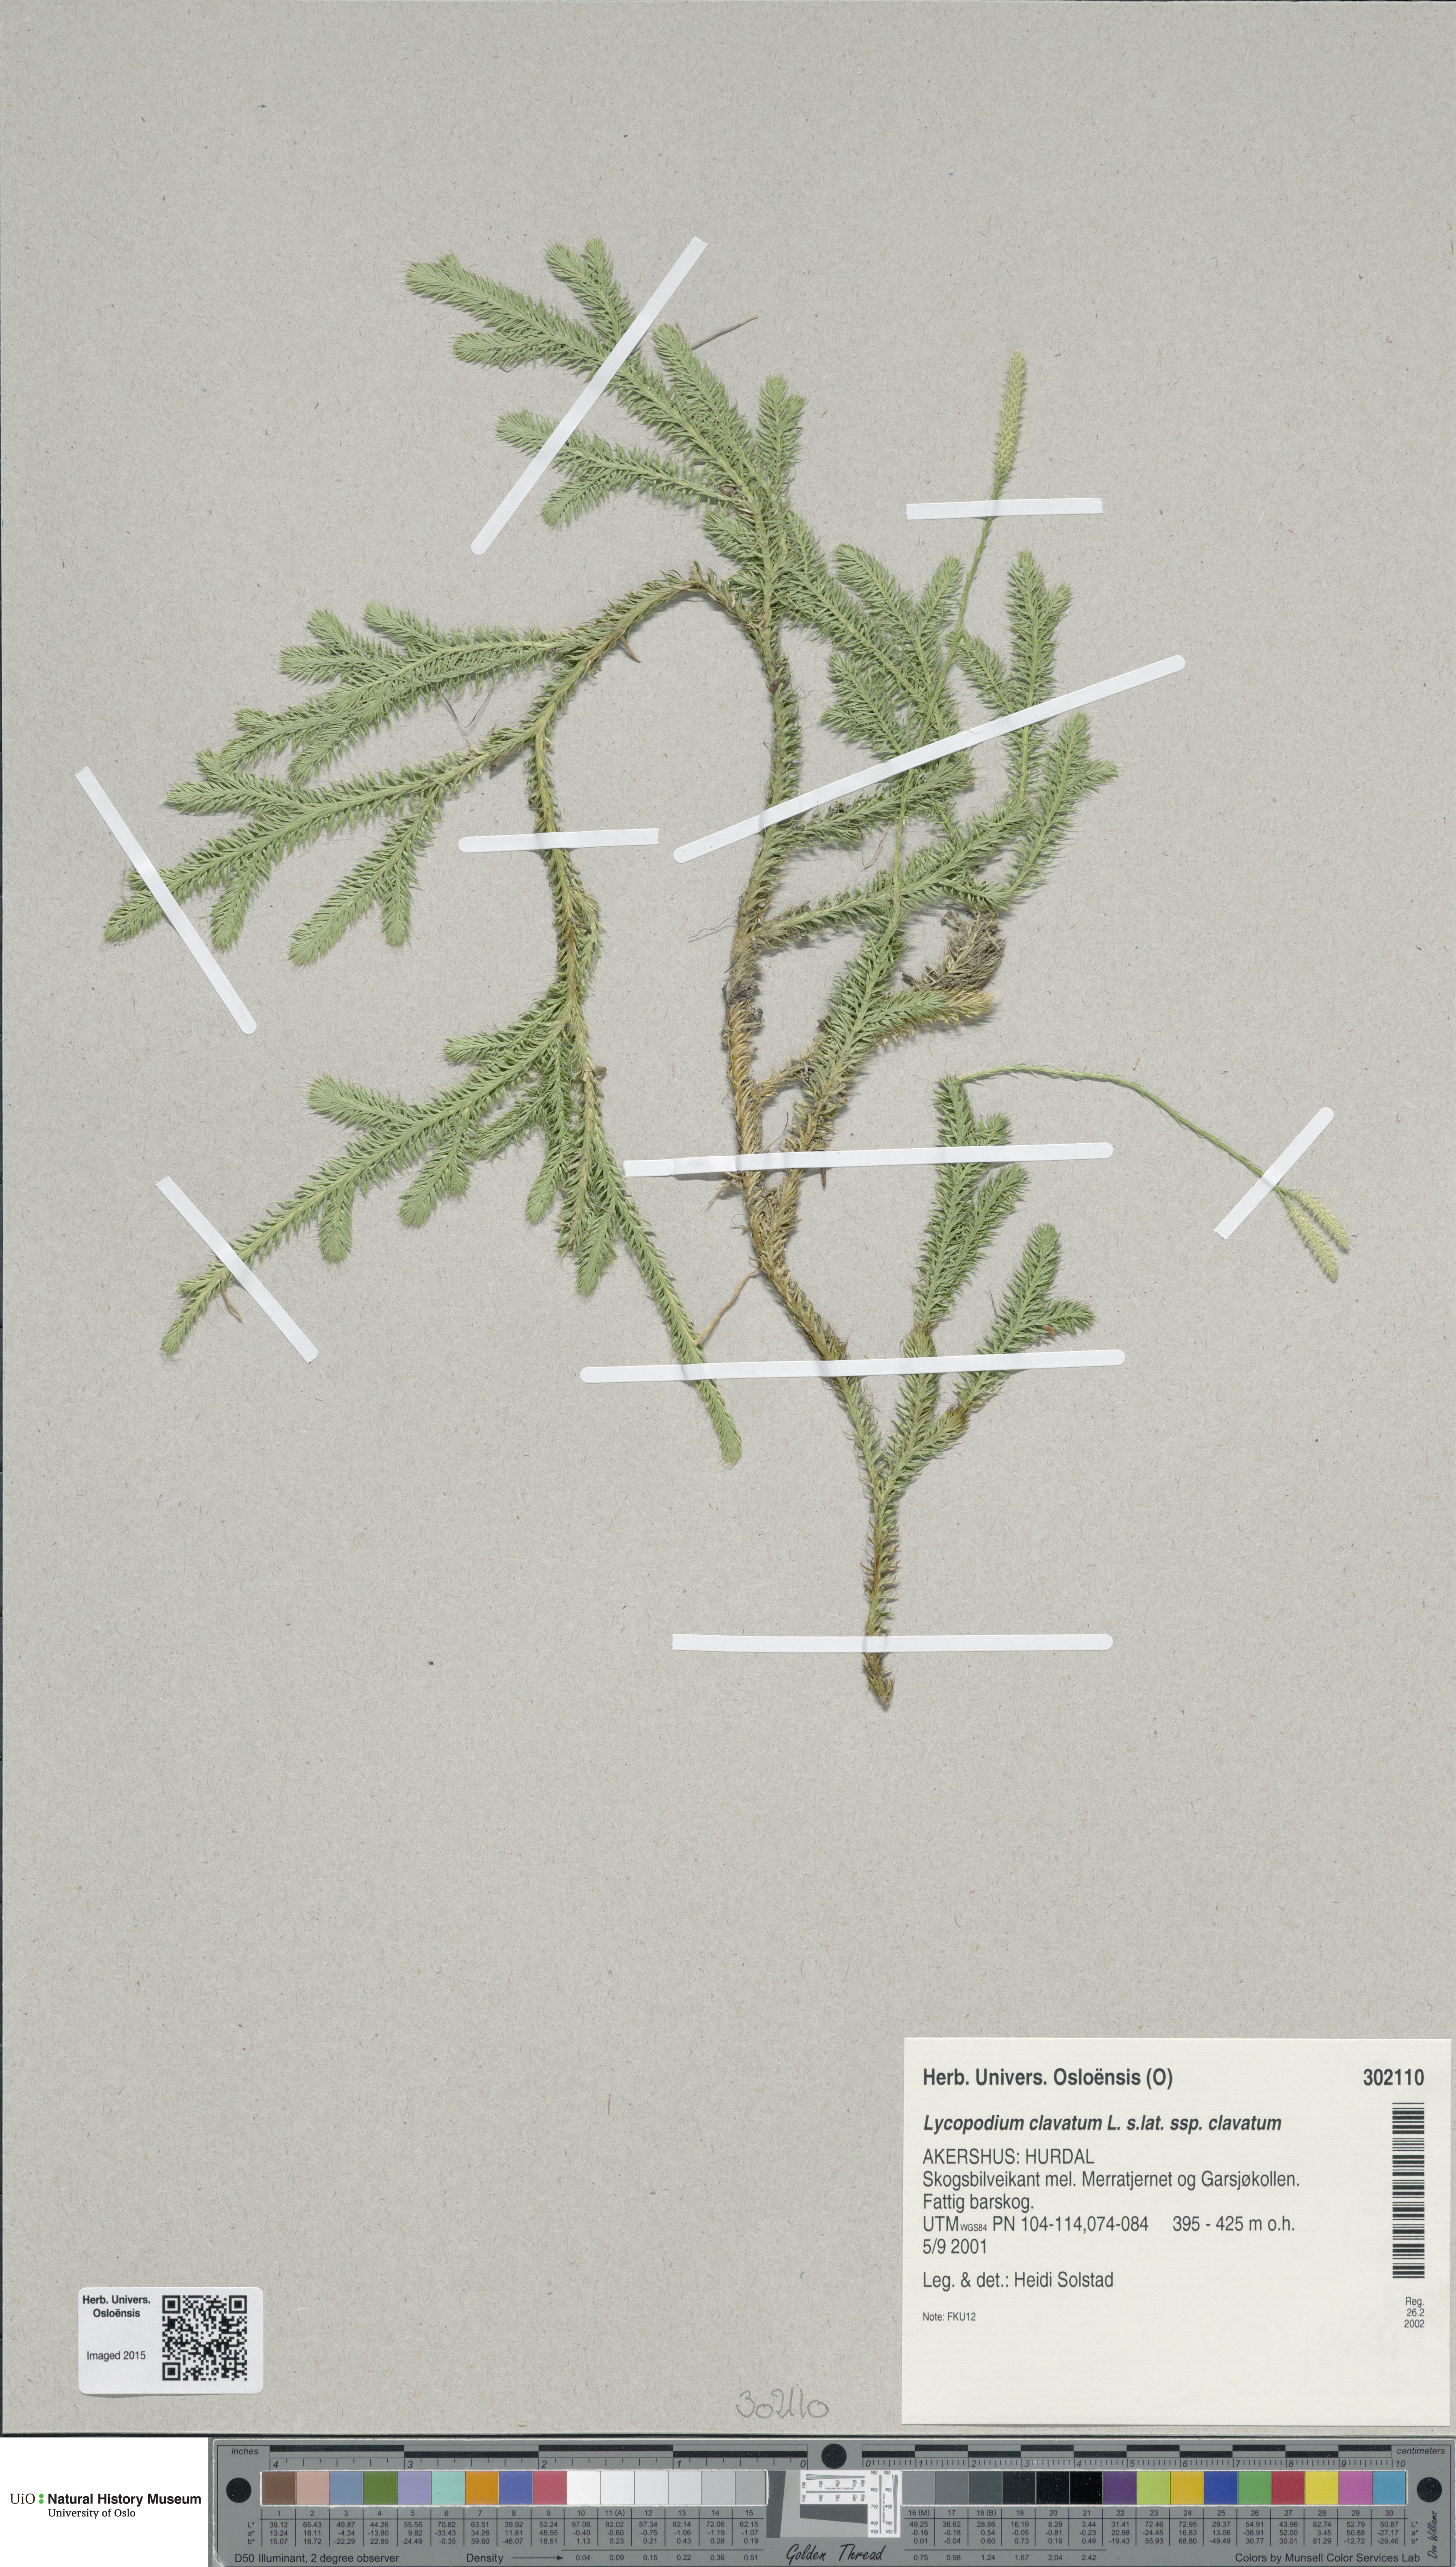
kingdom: Plantae
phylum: Tracheophyta
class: Lycopodiopsida
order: Lycopodiales
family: Lycopodiaceae
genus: Lycopodium
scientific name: Lycopodium clavatum
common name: Stag's-horn clubmoss
